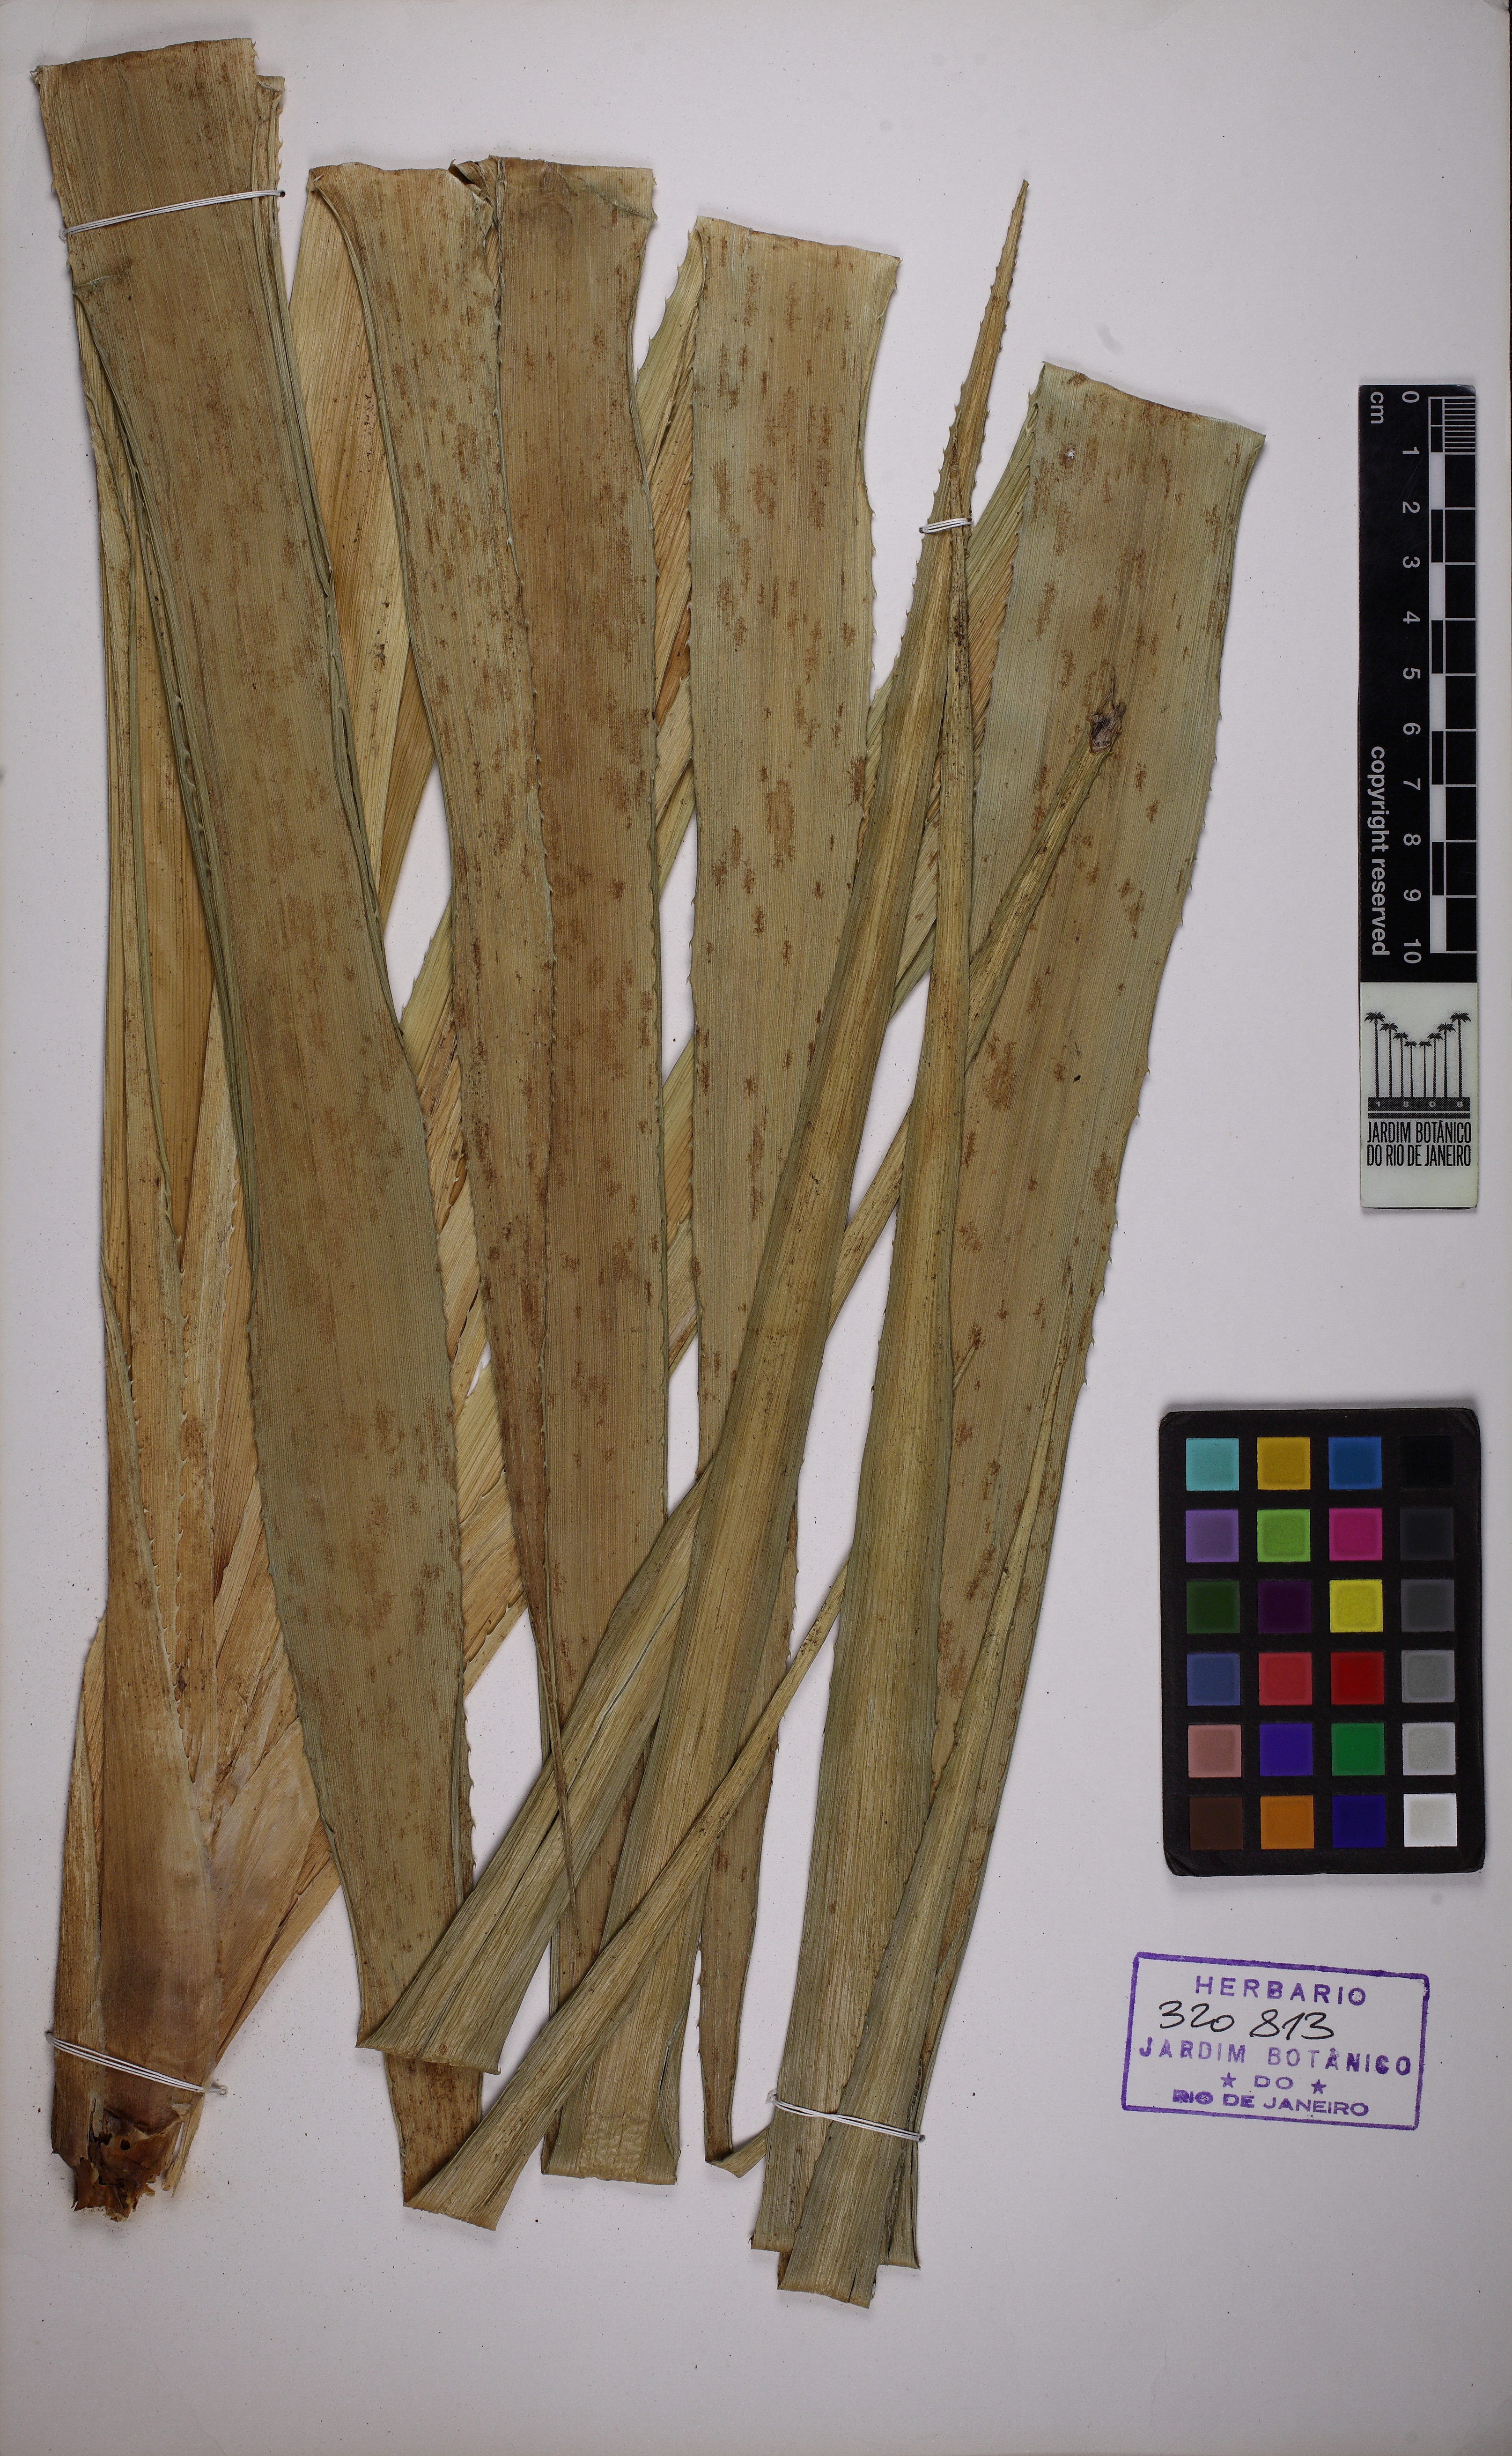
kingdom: Plantae
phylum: Tracheophyta
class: Liliopsida
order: Poales
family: Bromeliaceae
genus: Ananas
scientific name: Ananas comosus
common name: Pineapple
